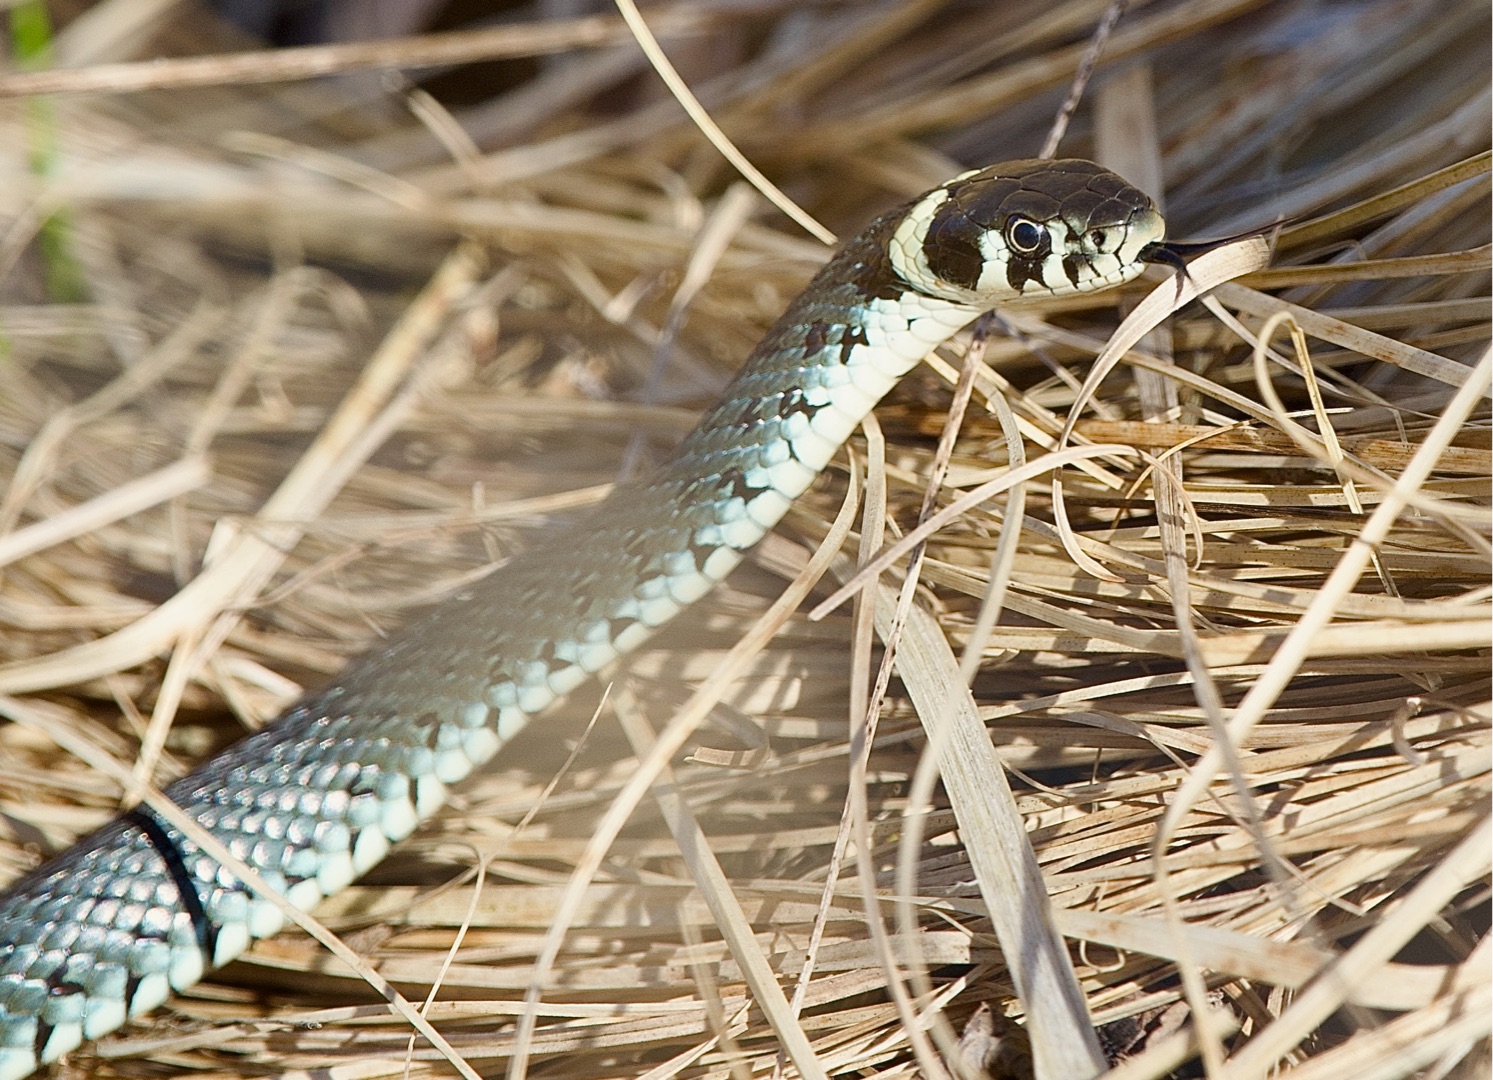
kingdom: Animalia
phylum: Chordata
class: Squamata
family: Colubridae
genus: Natrix
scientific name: Natrix natrix
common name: Snog
